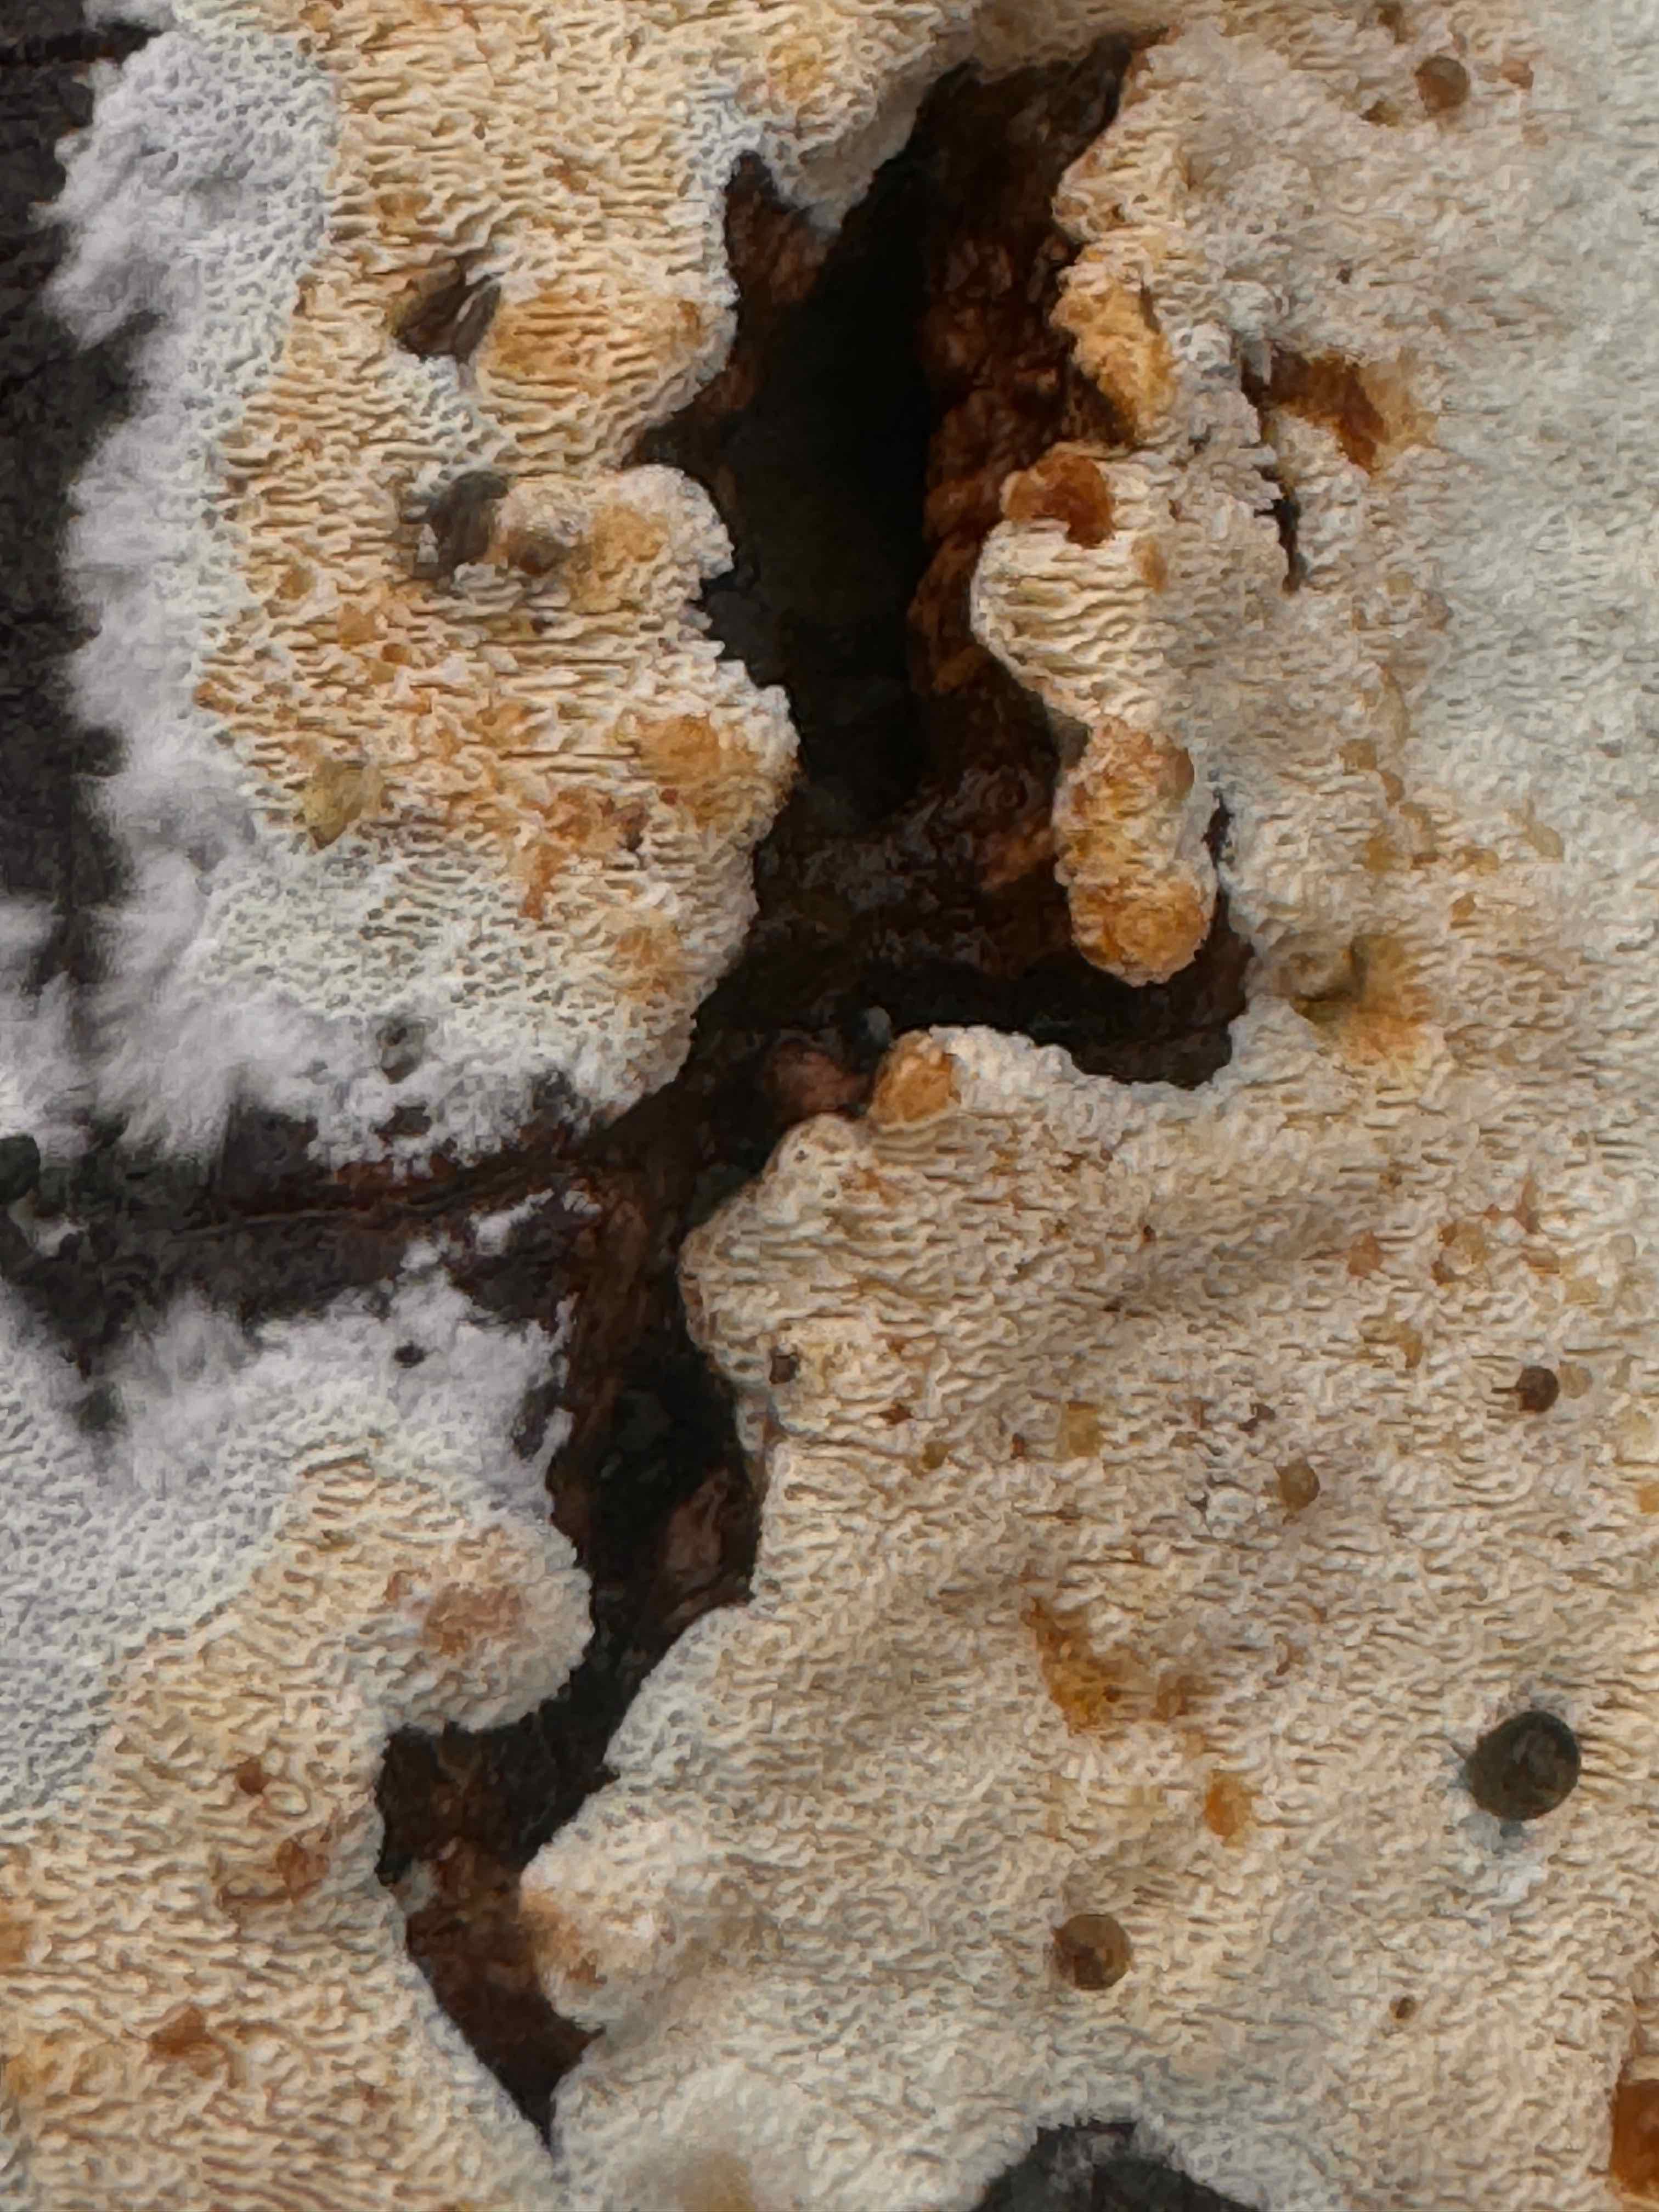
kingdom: Fungi
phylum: Basidiomycota
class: Agaricomycetes
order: Hymenochaetales
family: Schizoporaceae
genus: Xylodon
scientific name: Xylodon subtropicus
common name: labyrint-tandsvamp
